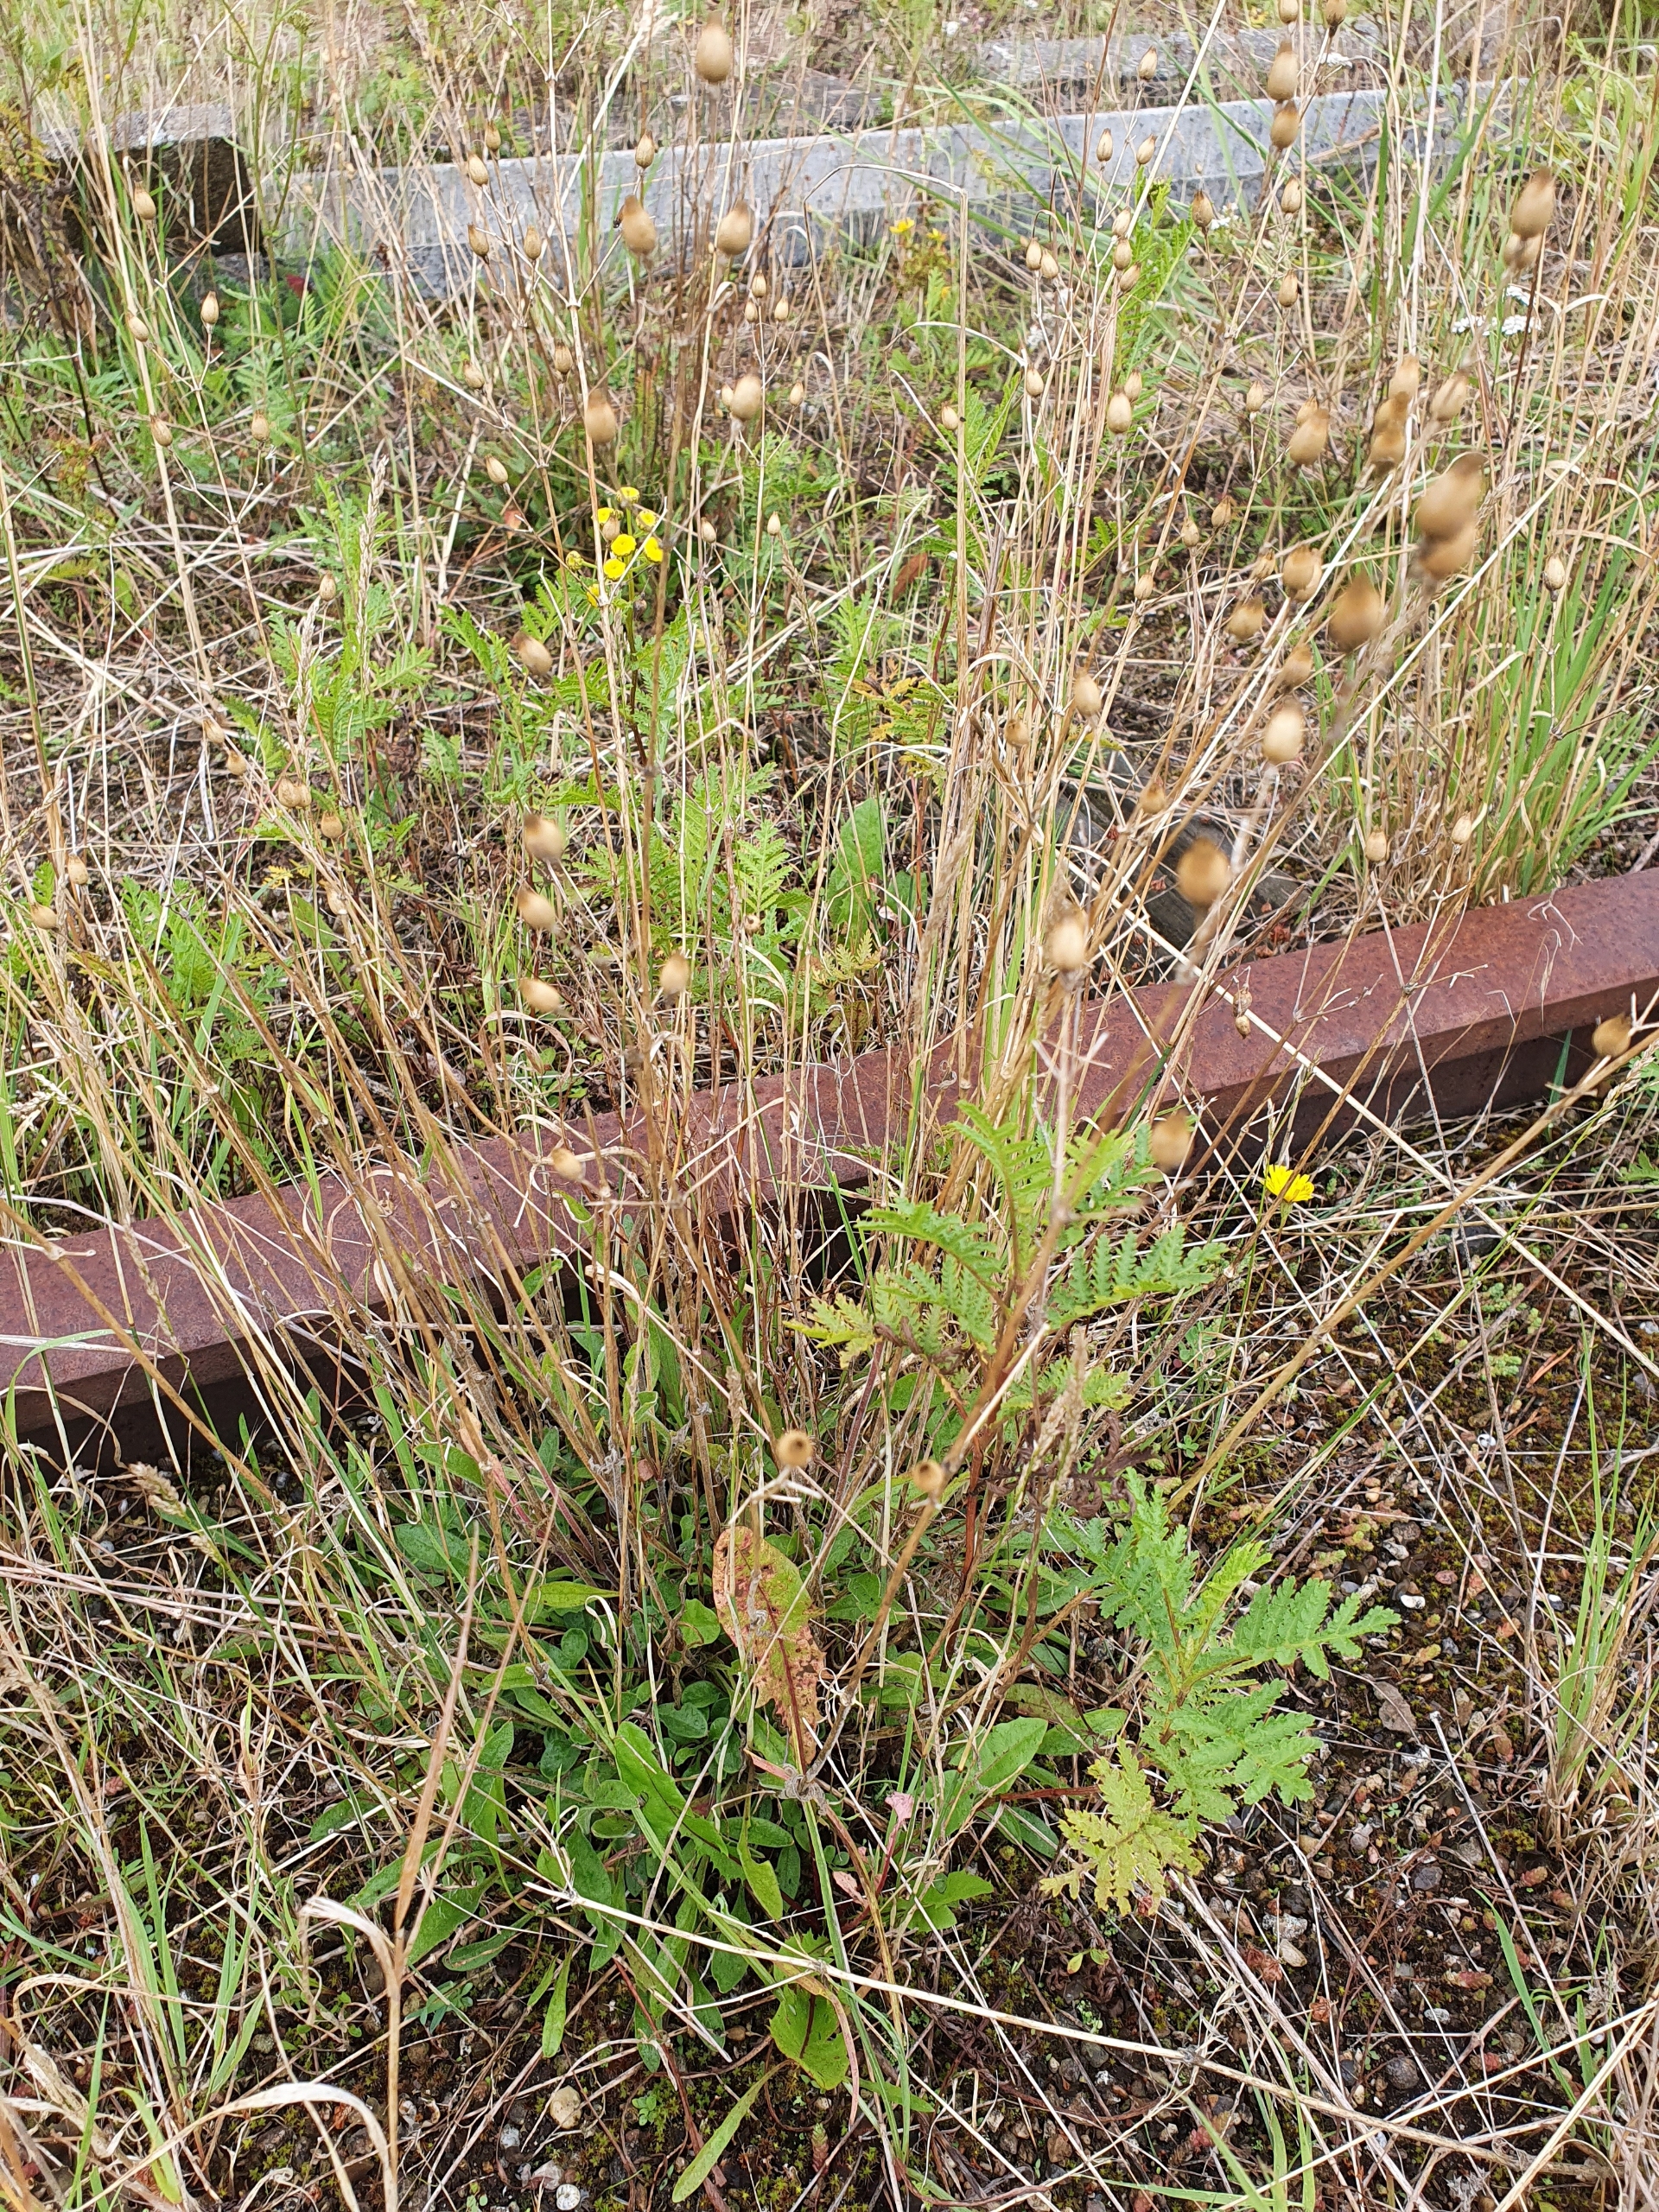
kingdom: Plantae
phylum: Tracheophyta
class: Magnoliopsida
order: Caryophyllales
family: Caryophyllaceae
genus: Silene
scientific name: Silene nutans
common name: Nikkende limurt
